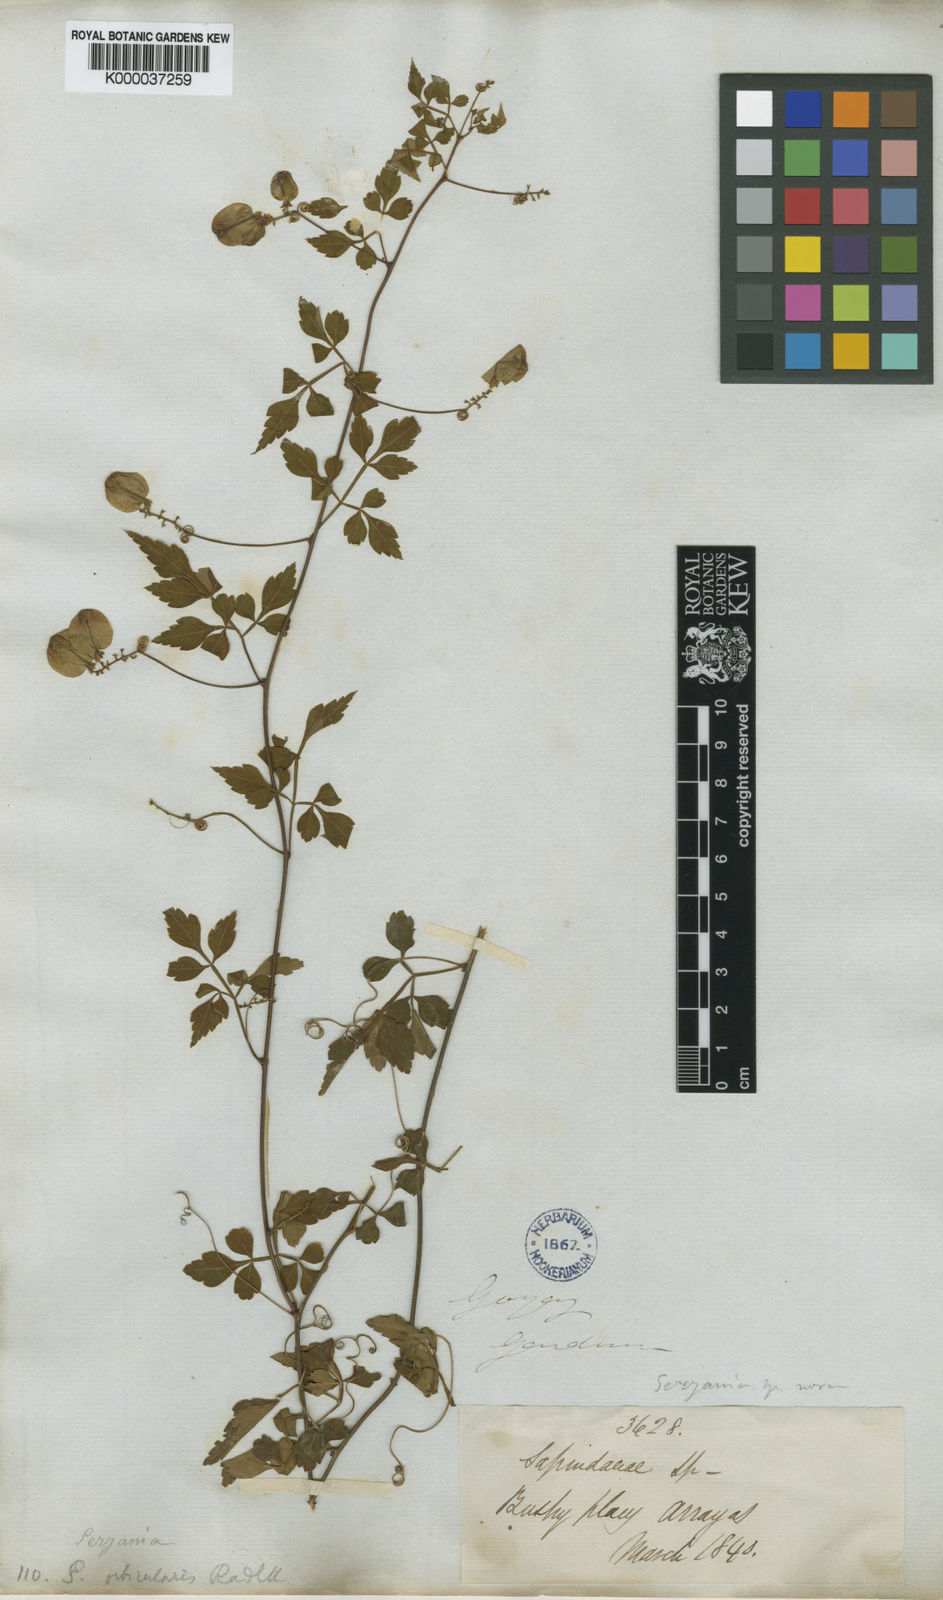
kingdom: Plantae
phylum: Tracheophyta
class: Magnoliopsida
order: Sapindales
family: Sapindaceae
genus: Serjania
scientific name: Serjania orbicularis
